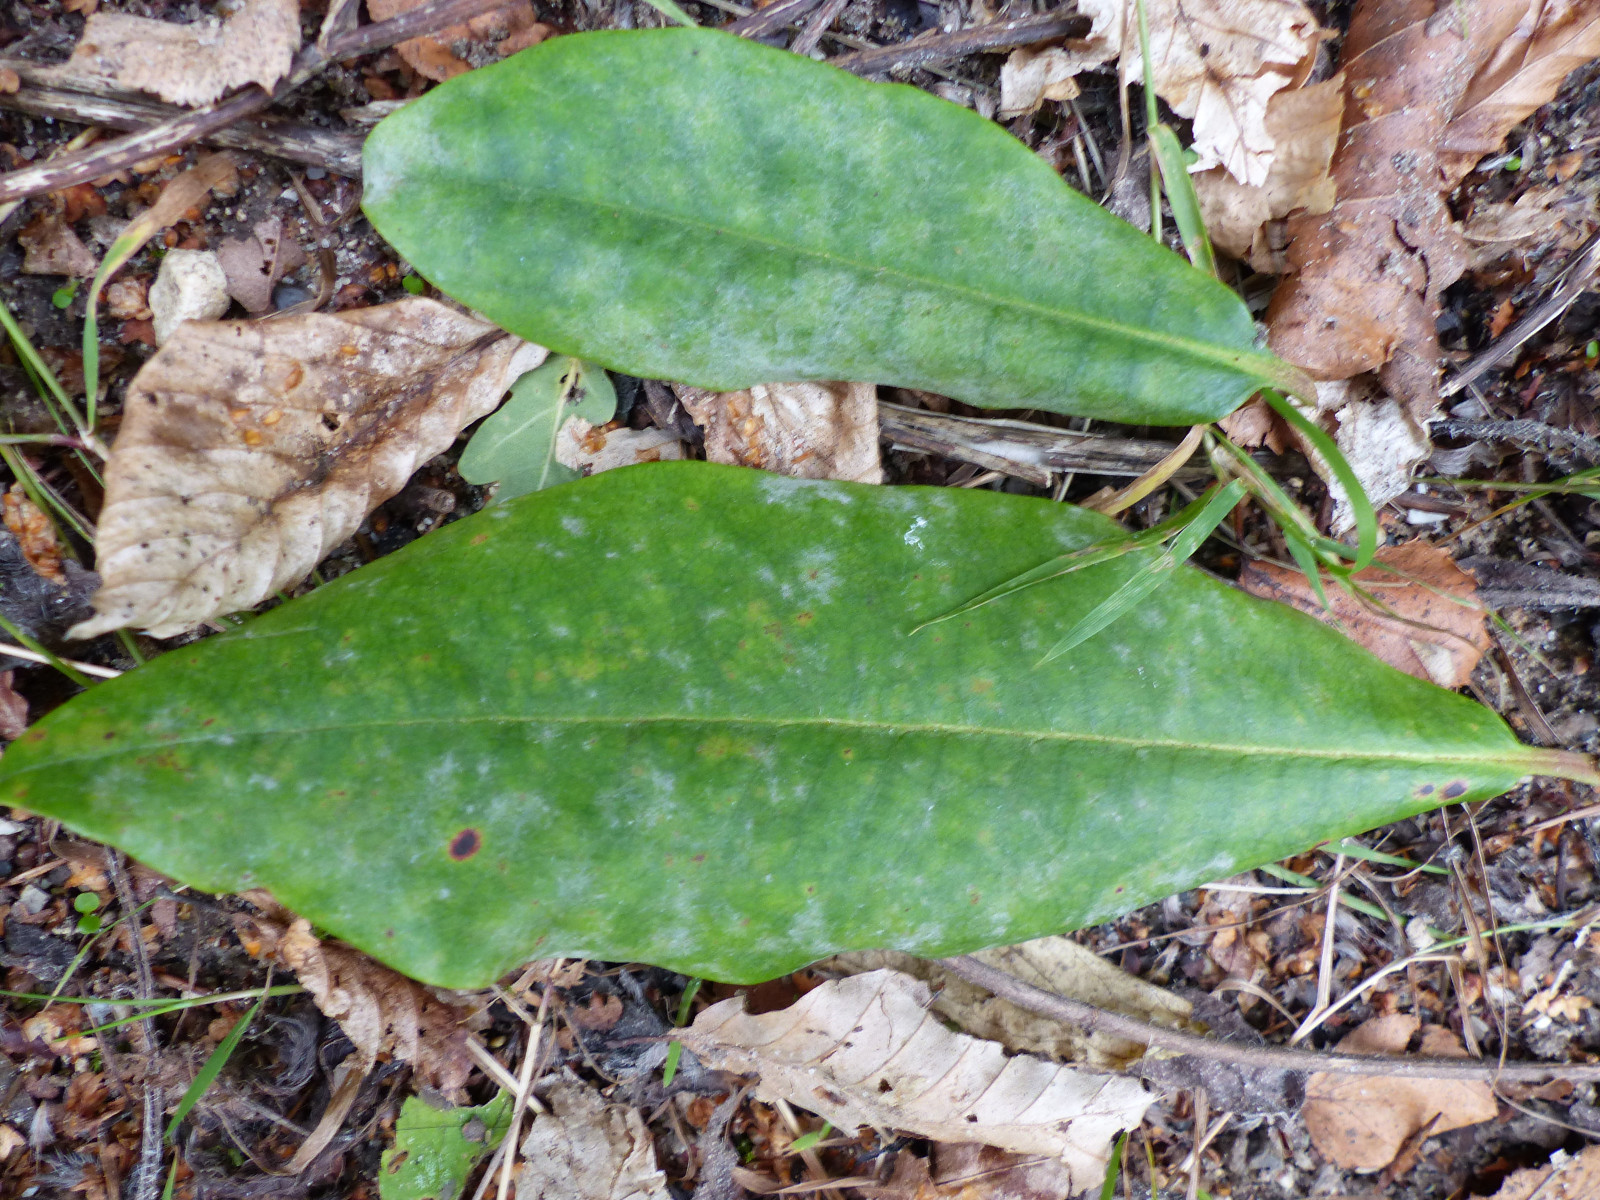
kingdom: Fungi
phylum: Ascomycota
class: Leotiomycetes
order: Helotiales
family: Erysiphaceae
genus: Erysiphe
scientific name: Erysiphe azaleae
